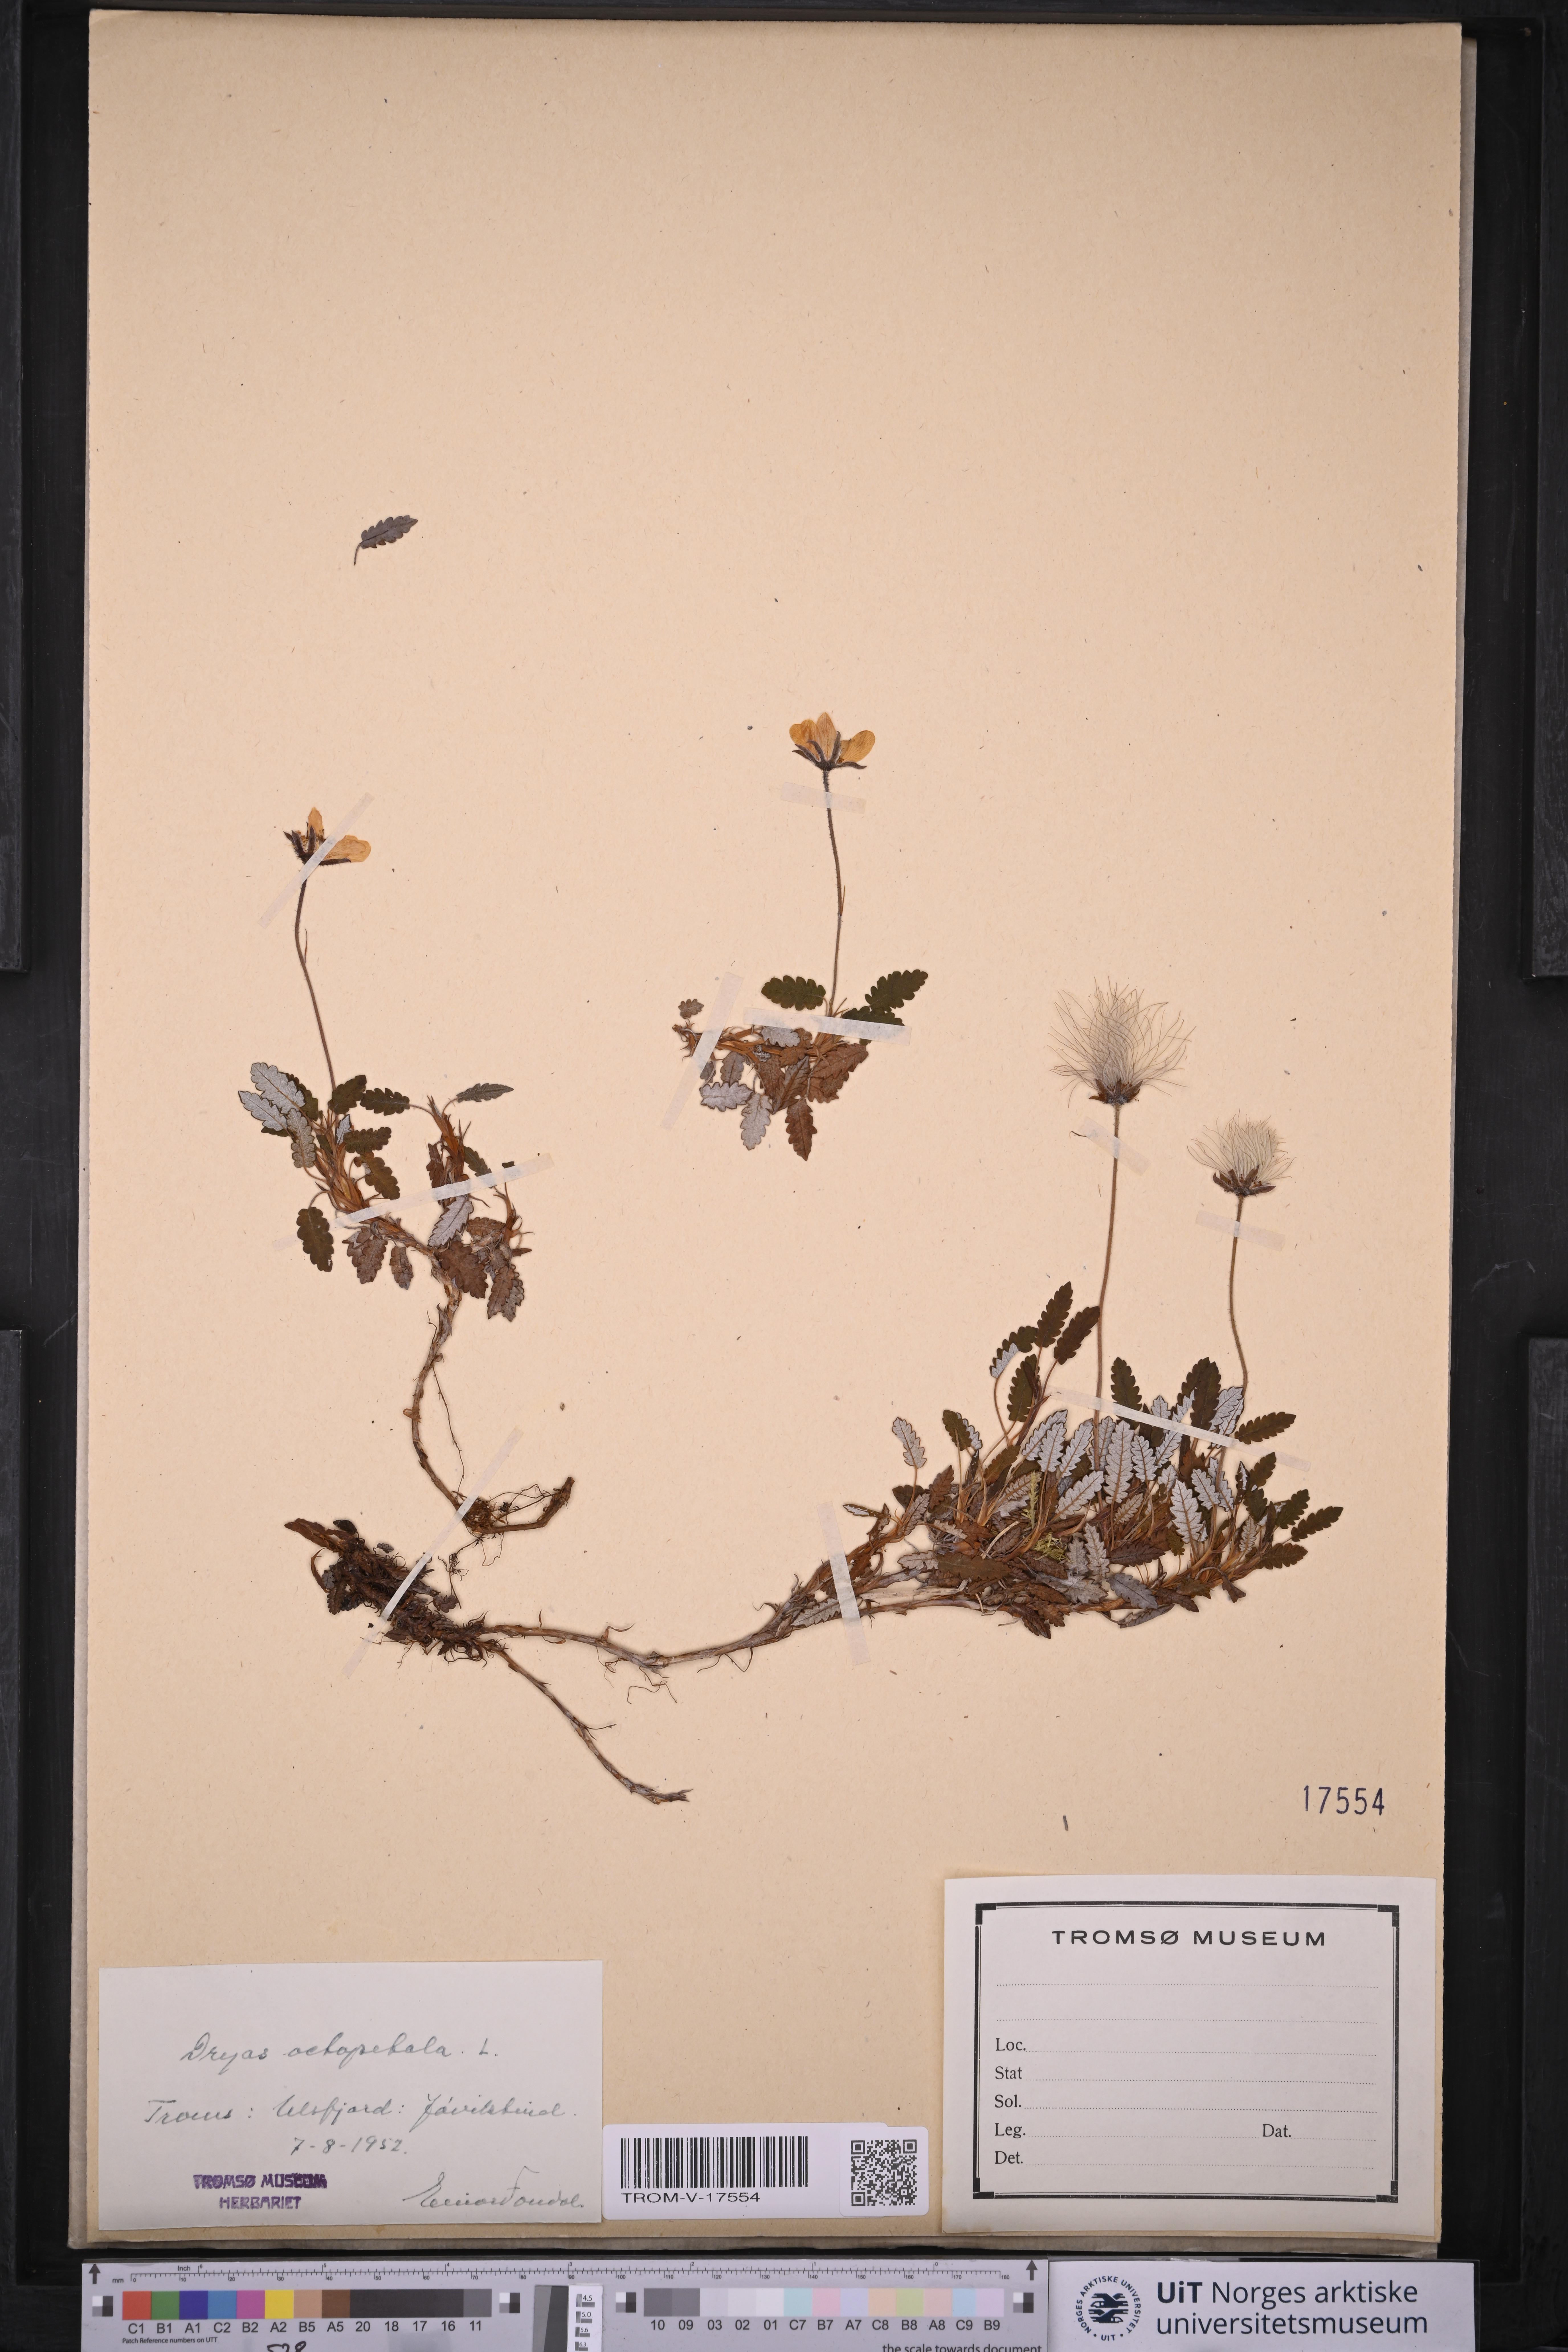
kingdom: Plantae
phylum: Tracheophyta
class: Magnoliopsida
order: Rosales
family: Rosaceae
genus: Dryas
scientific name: Dryas octopetala
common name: Eight-petal mountain-avens
